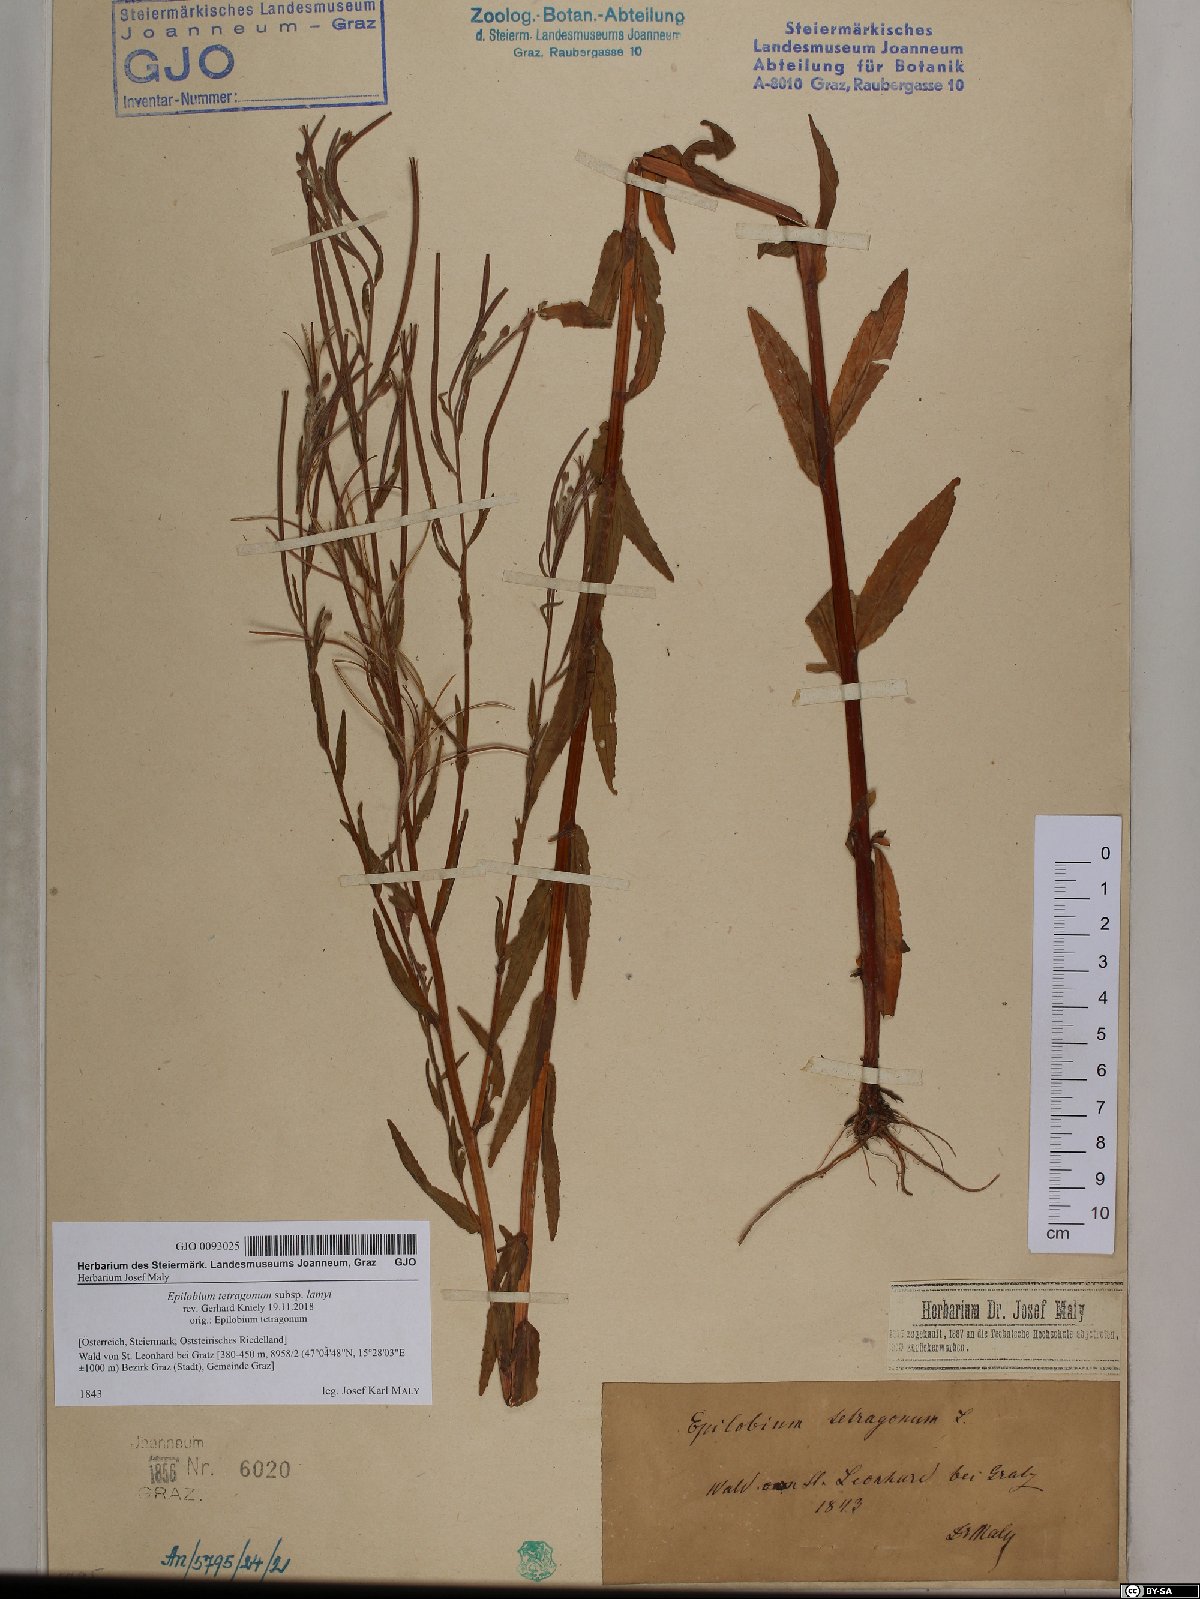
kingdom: Plantae
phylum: Tracheophyta
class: Magnoliopsida
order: Myrtales
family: Onagraceae
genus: Epilobium
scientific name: Epilobium lamyi
